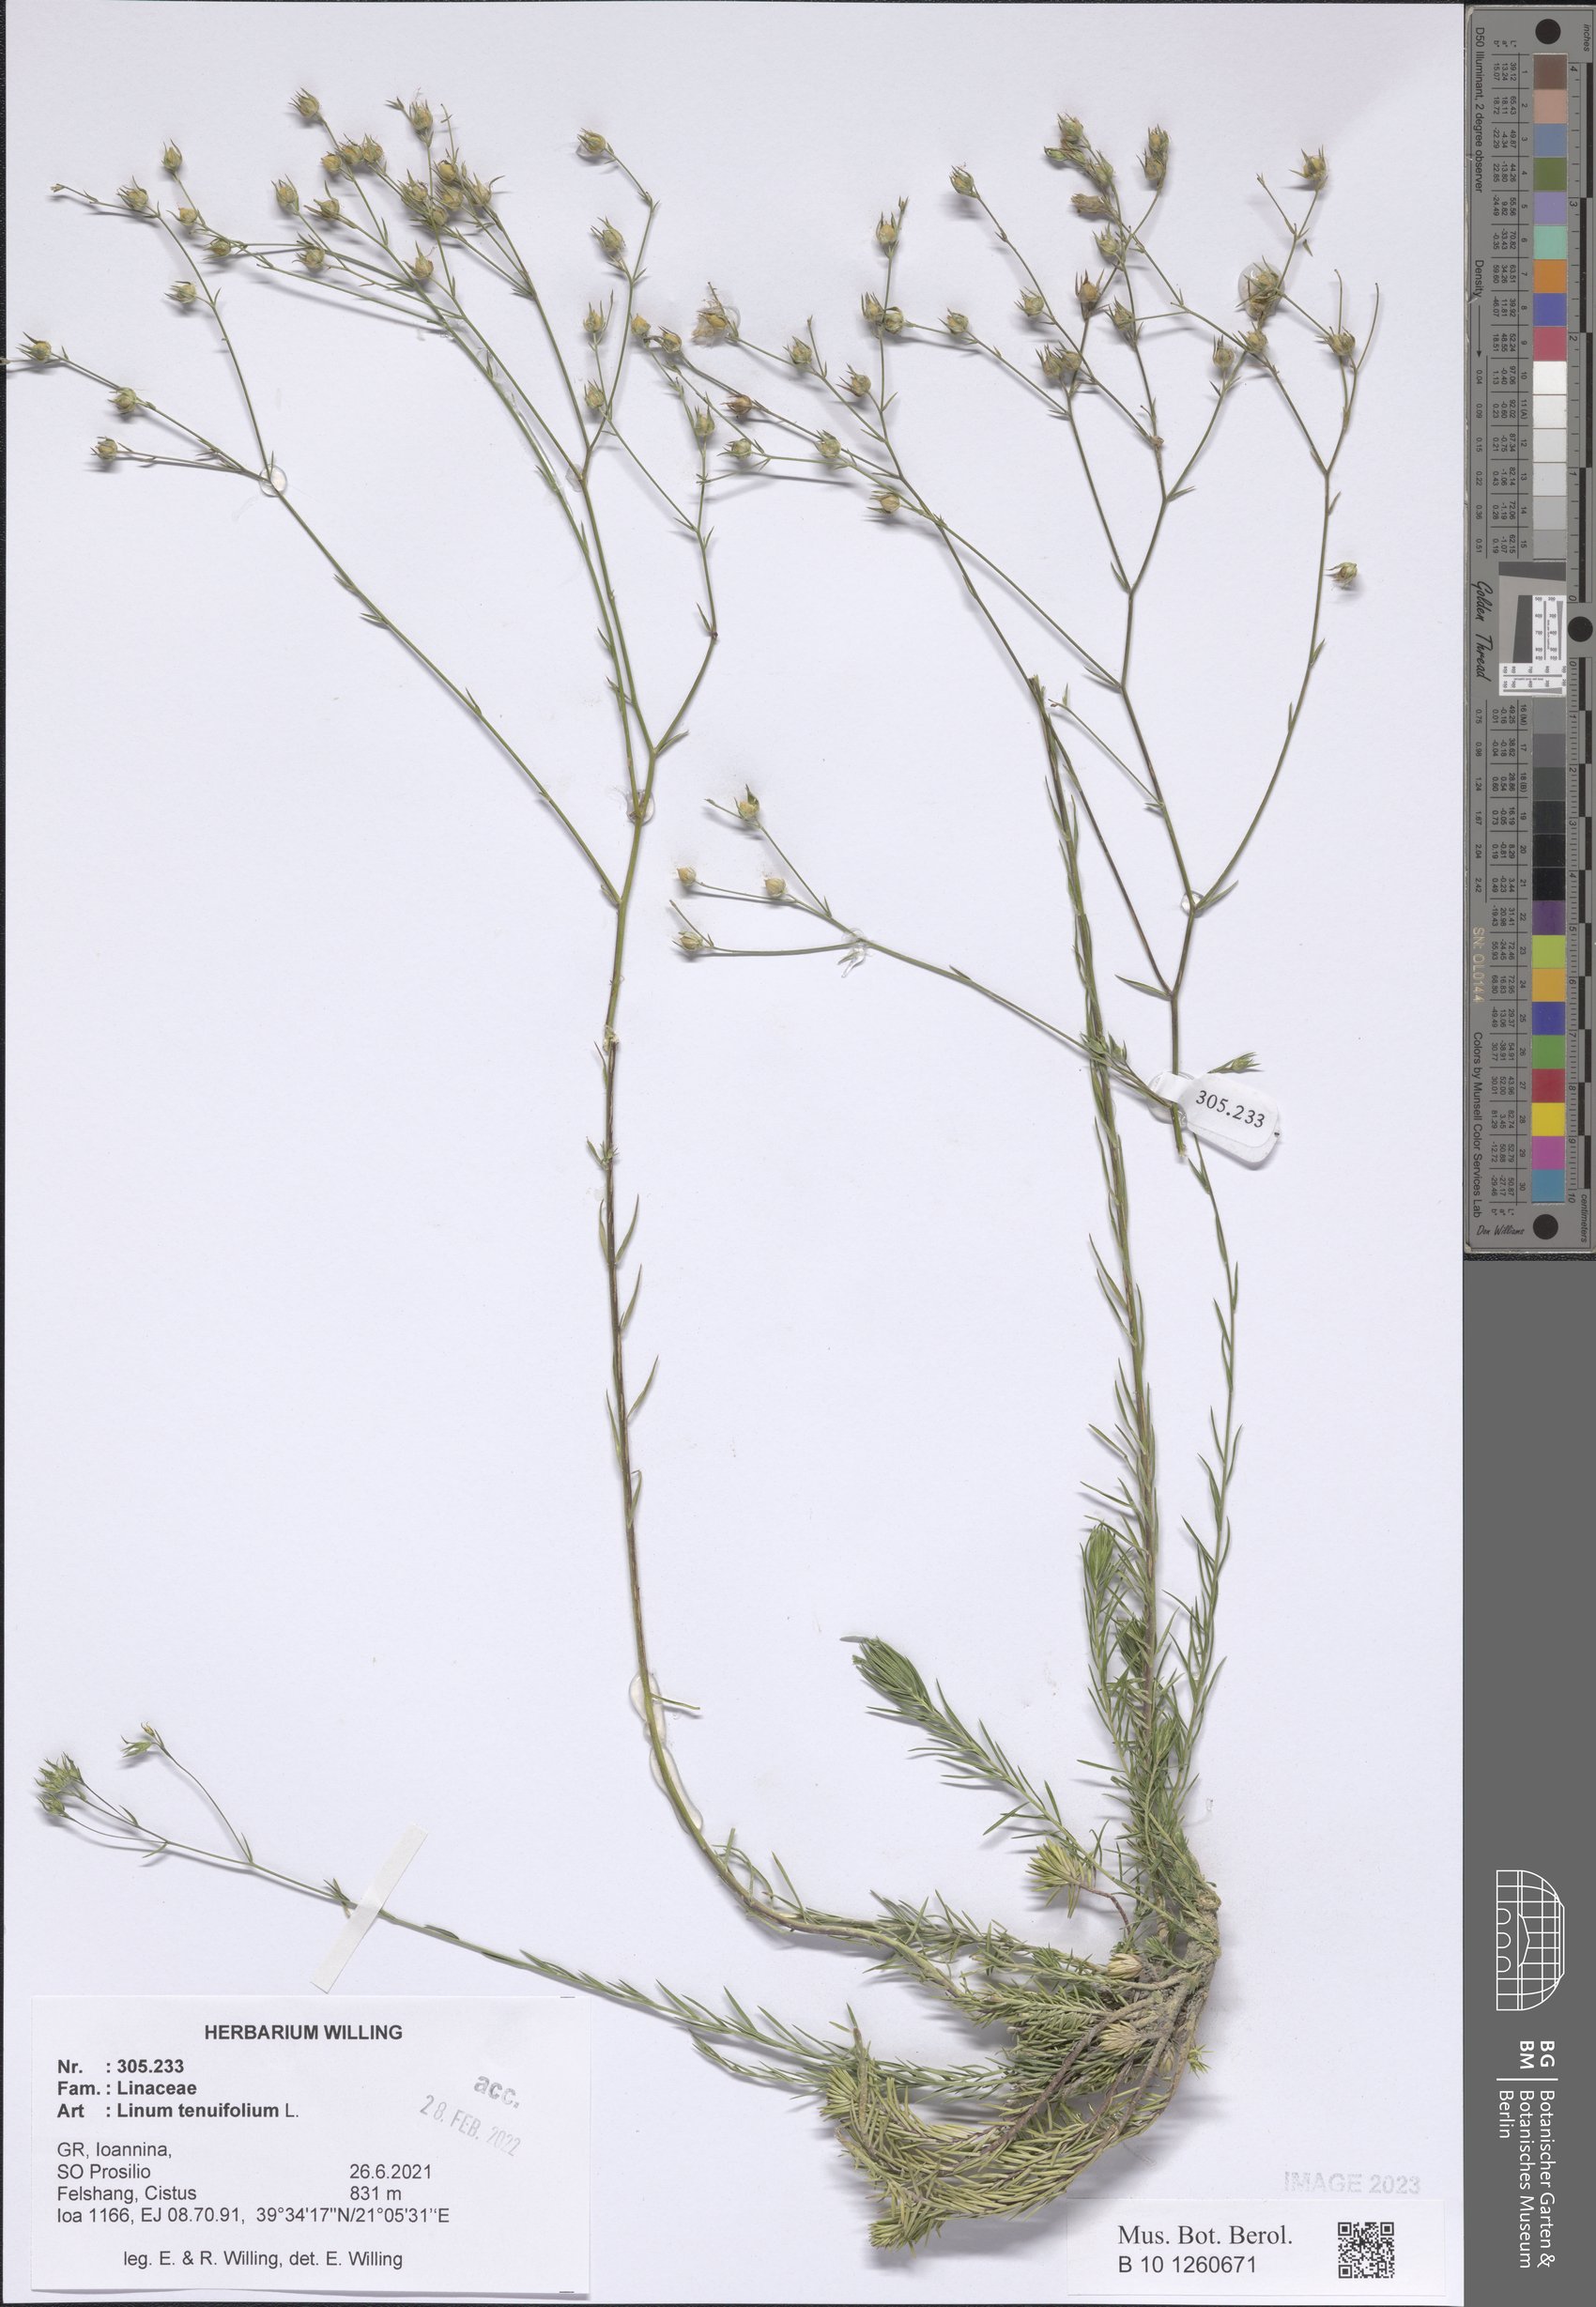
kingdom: Plantae
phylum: Tracheophyta
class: Magnoliopsida
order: Malpighiales
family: Linaceae
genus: Linum
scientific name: Linum tenuifolium
